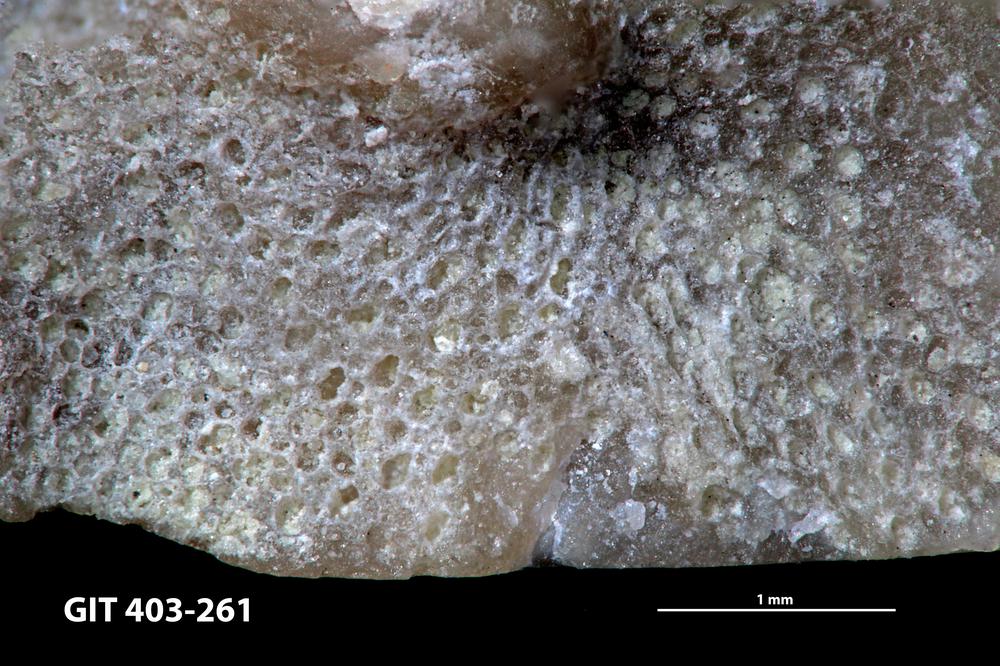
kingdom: Animalia
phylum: Bryozoa
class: Stenolaemata
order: Cystoporida
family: Fistuliporidae
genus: Fistulipora
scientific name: Fistulipora przhidolensis
